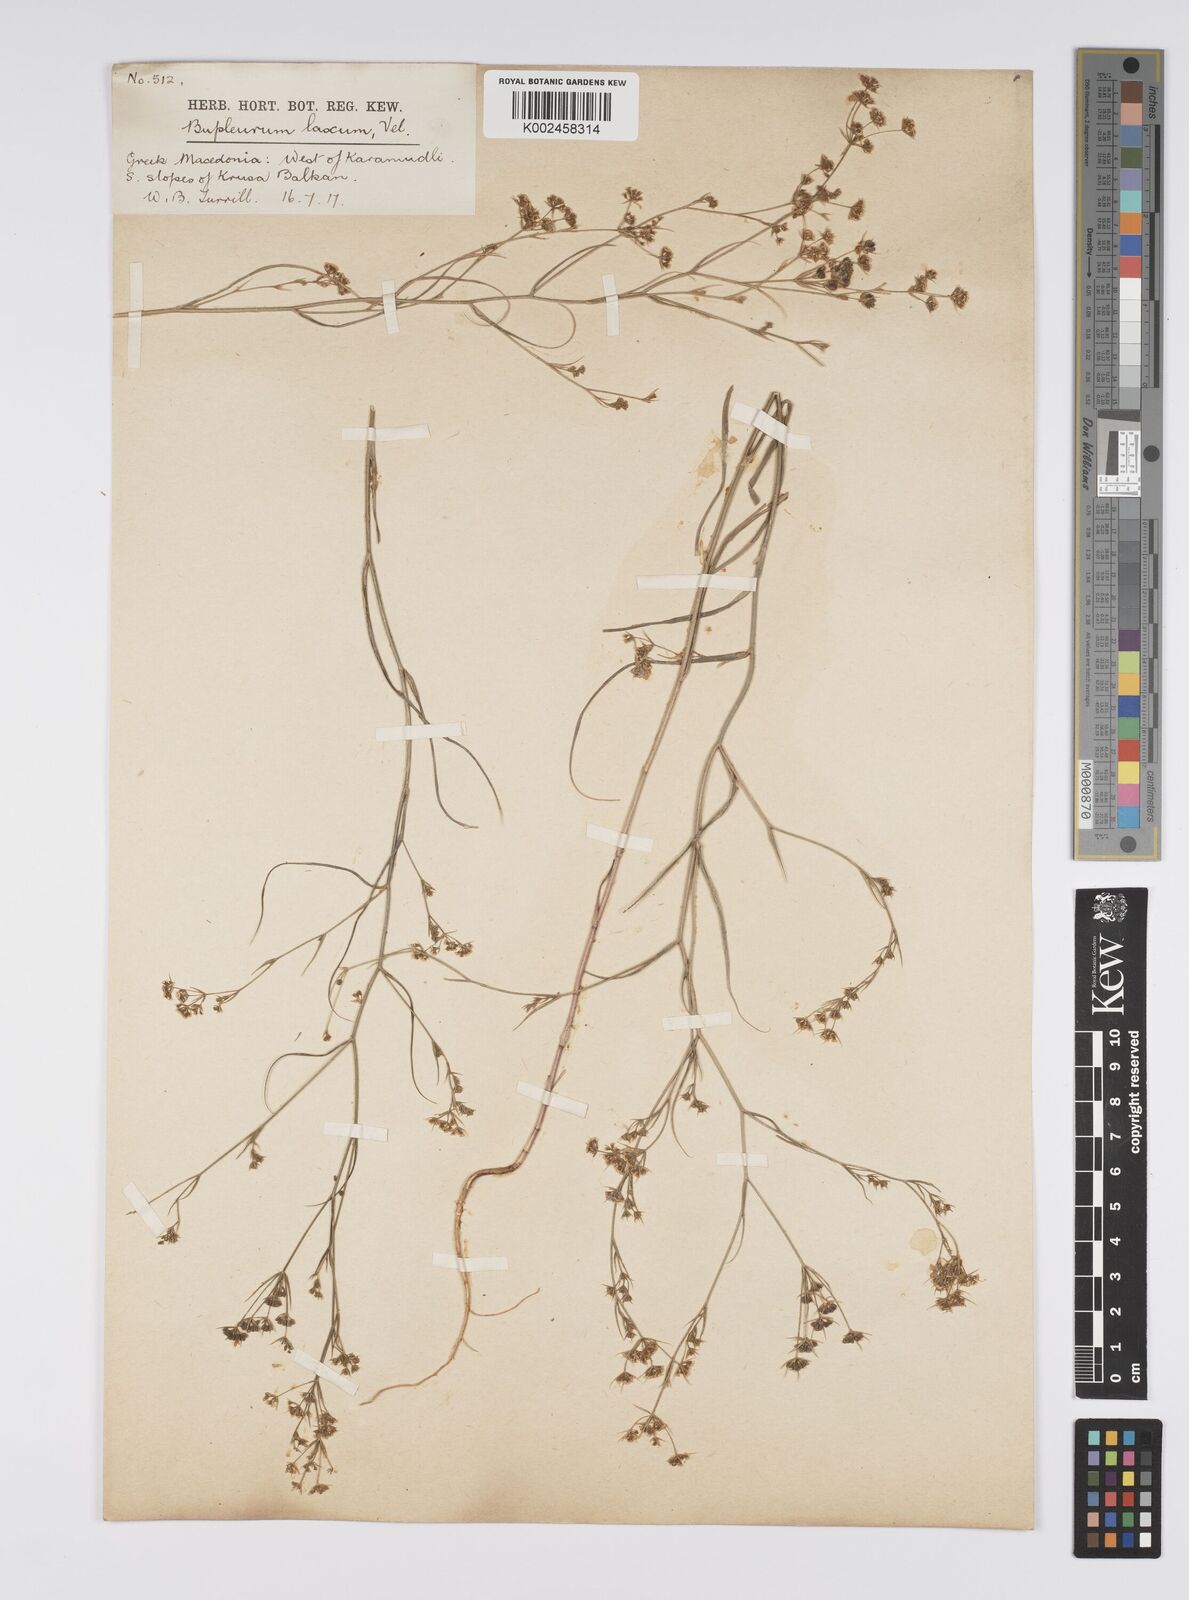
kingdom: Plantae
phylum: Tracheophyta
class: Magnoliopsida
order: Apiales
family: Apiaceae
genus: Bupleurum
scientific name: Bupleurum commutatum
